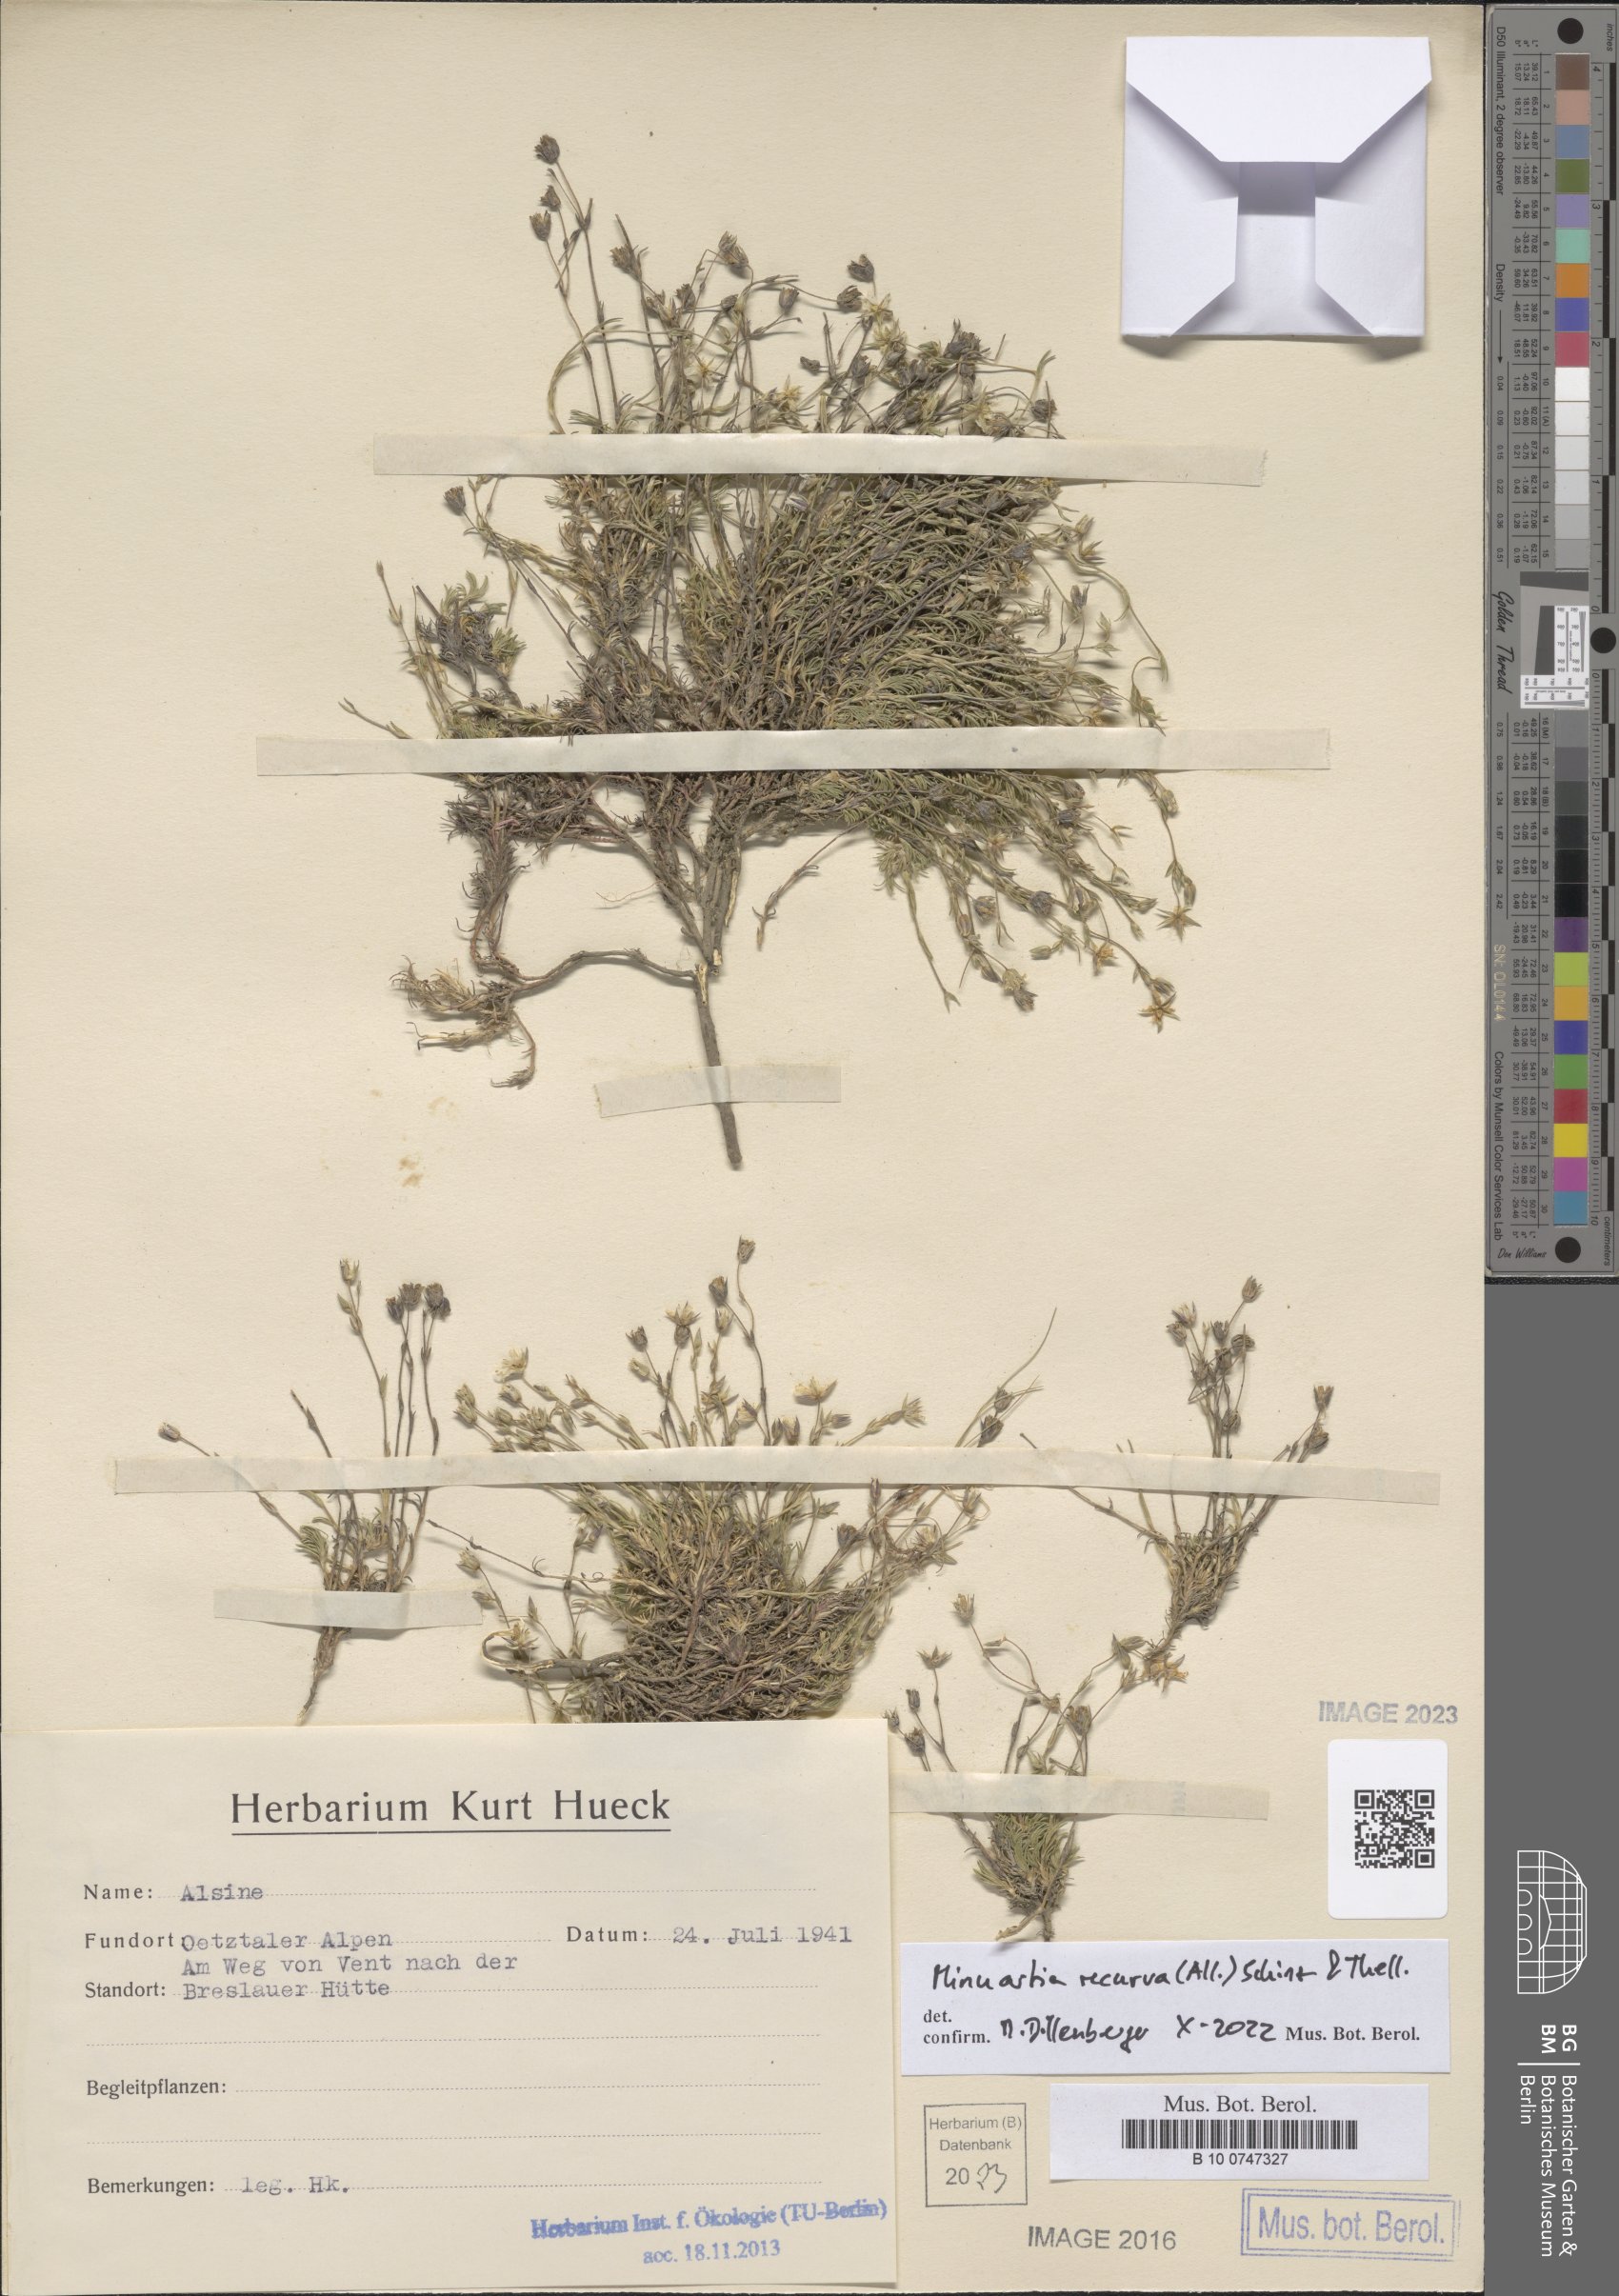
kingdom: Plantae
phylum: Tracheophyta
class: Magnoliopsida
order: Caryophyllales
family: Caryophyllaceae
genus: Minuartia
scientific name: Minuartia recurva
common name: Recurved sandwort
